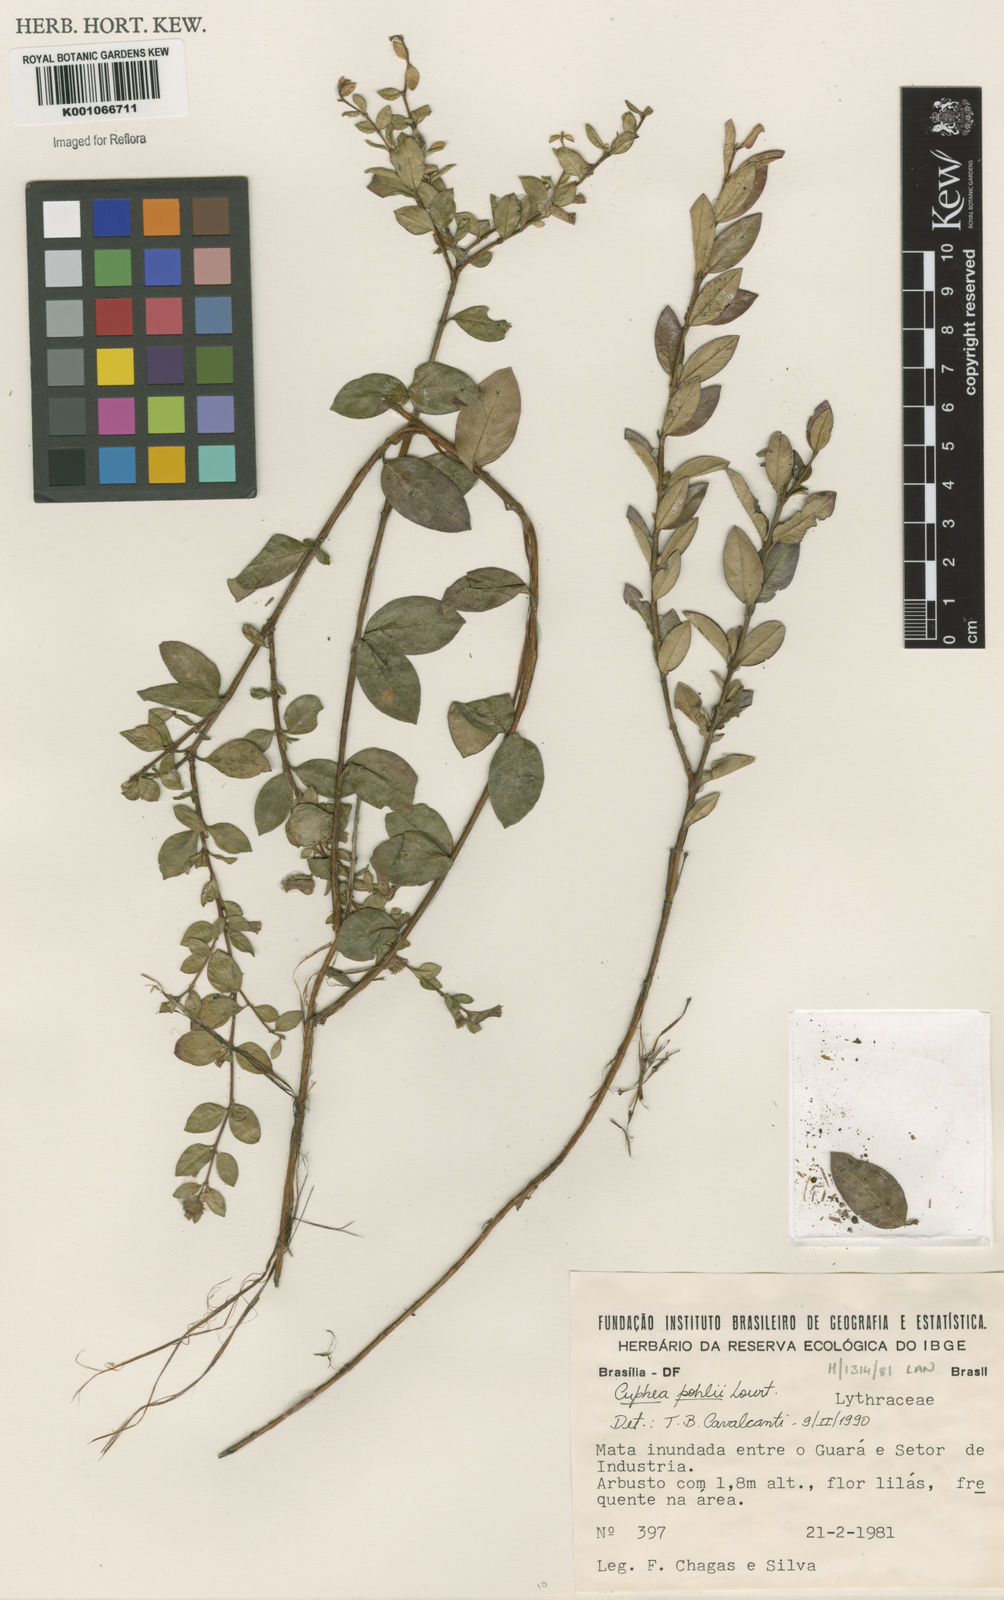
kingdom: Plantae
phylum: Tracheophyta
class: Magnoliopsida
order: Myrtales
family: Lythraceae
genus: Cuphea
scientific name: Cuphea pohlii
